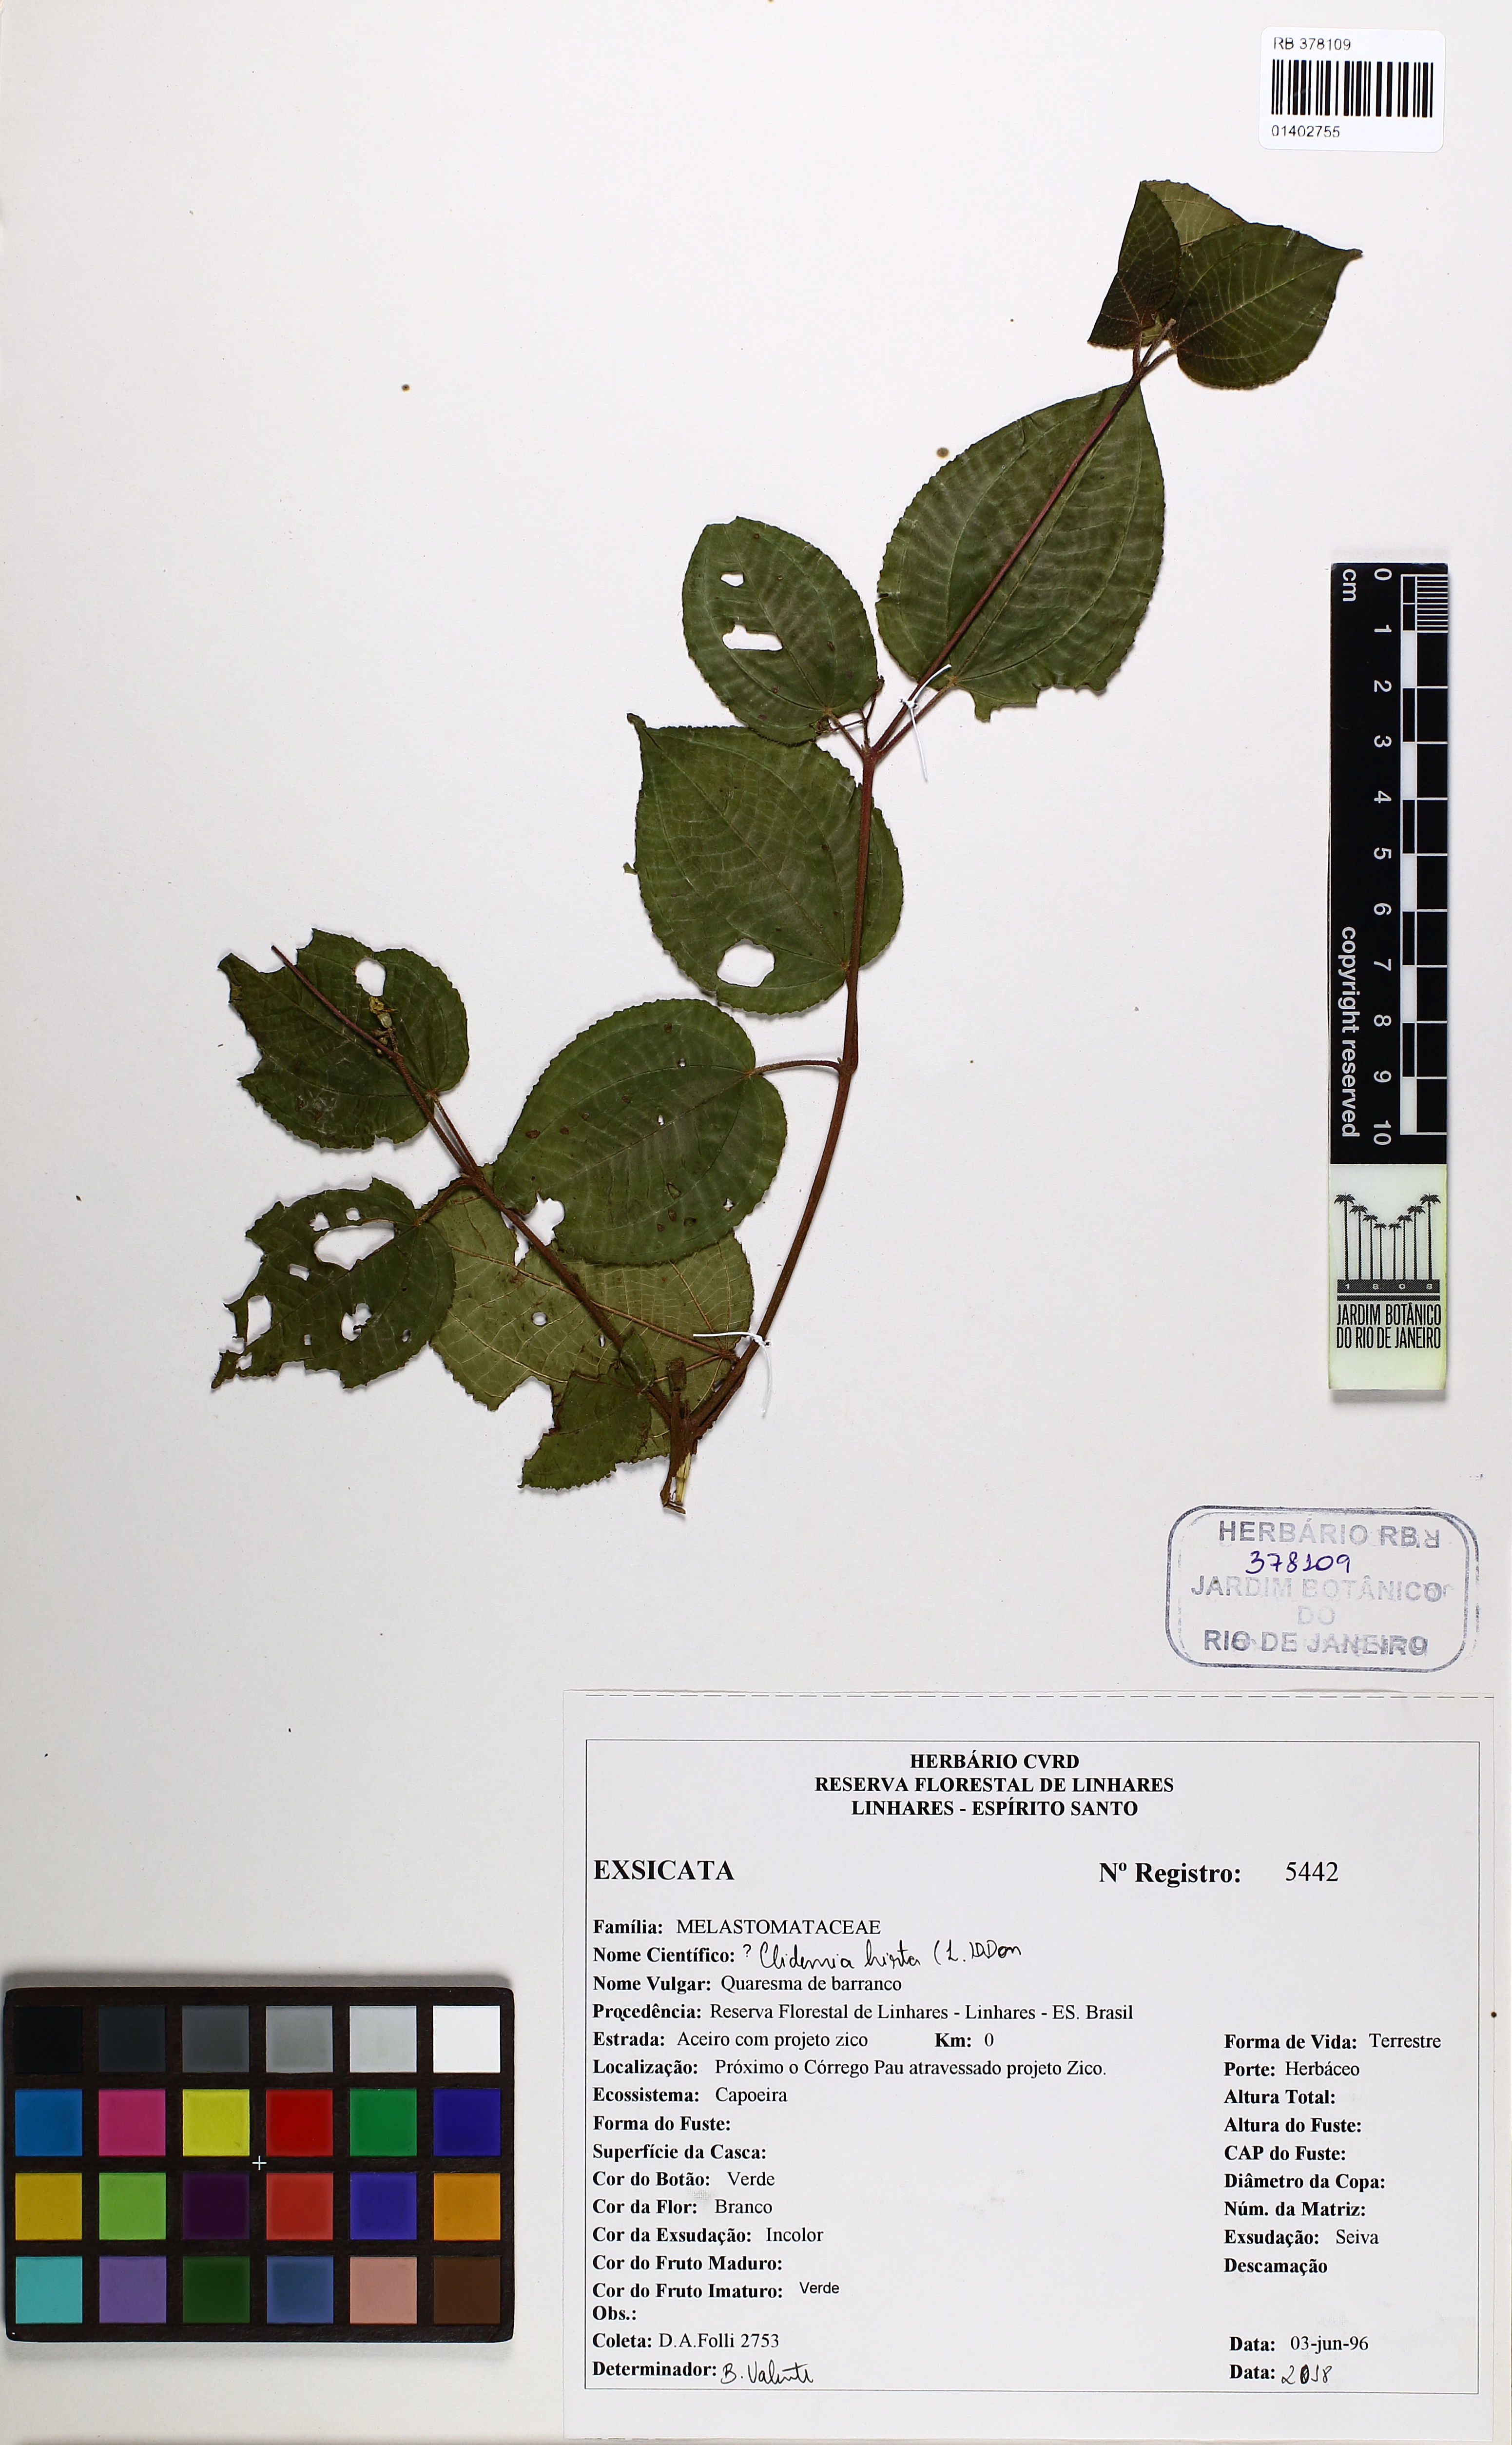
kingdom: Plantae
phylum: Tracheophyta
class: Magnoliopsida
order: Myrtales
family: Melastomataceae
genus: Miconia
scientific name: Miconia crenata
